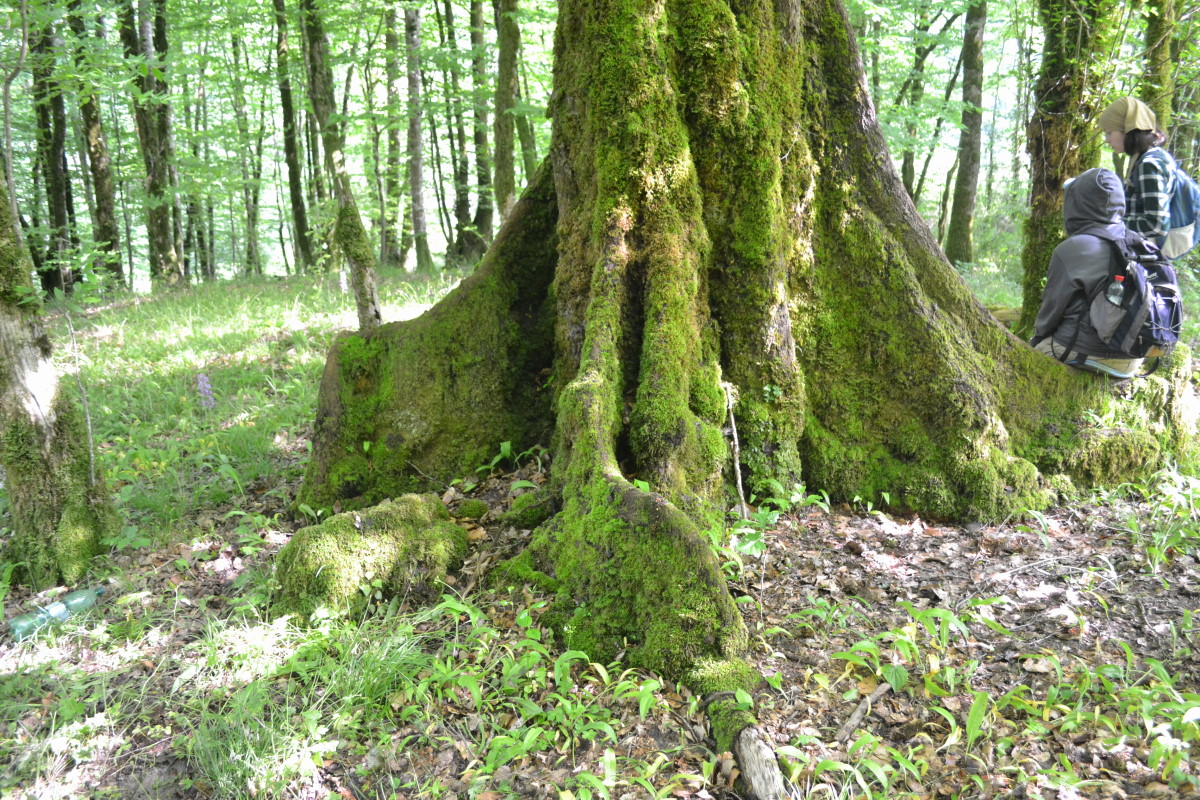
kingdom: Plantae
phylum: Tracheophyta
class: Magnoliopsida
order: Fagales
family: Fagaceae
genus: Fagus
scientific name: Fagus
